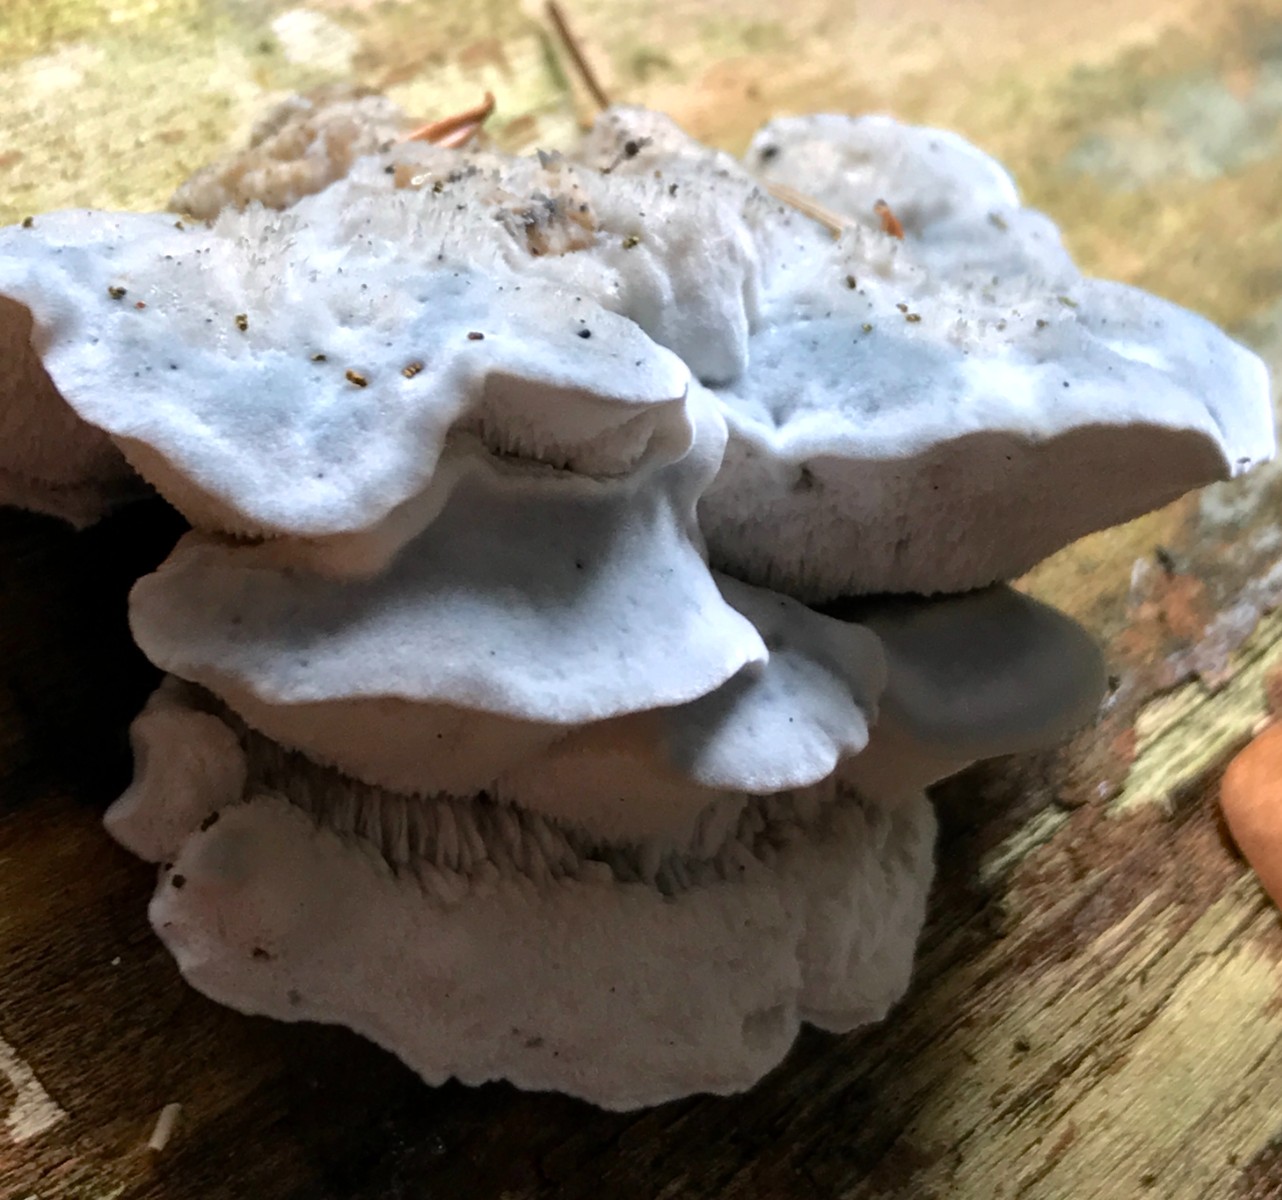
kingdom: Fungi
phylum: Basidiomycota
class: Agaricomycetes
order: Polyporales
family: Polyporaceae
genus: Cyanosporus
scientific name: Cyanosporus caesius
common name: blålig kødporesvamp
